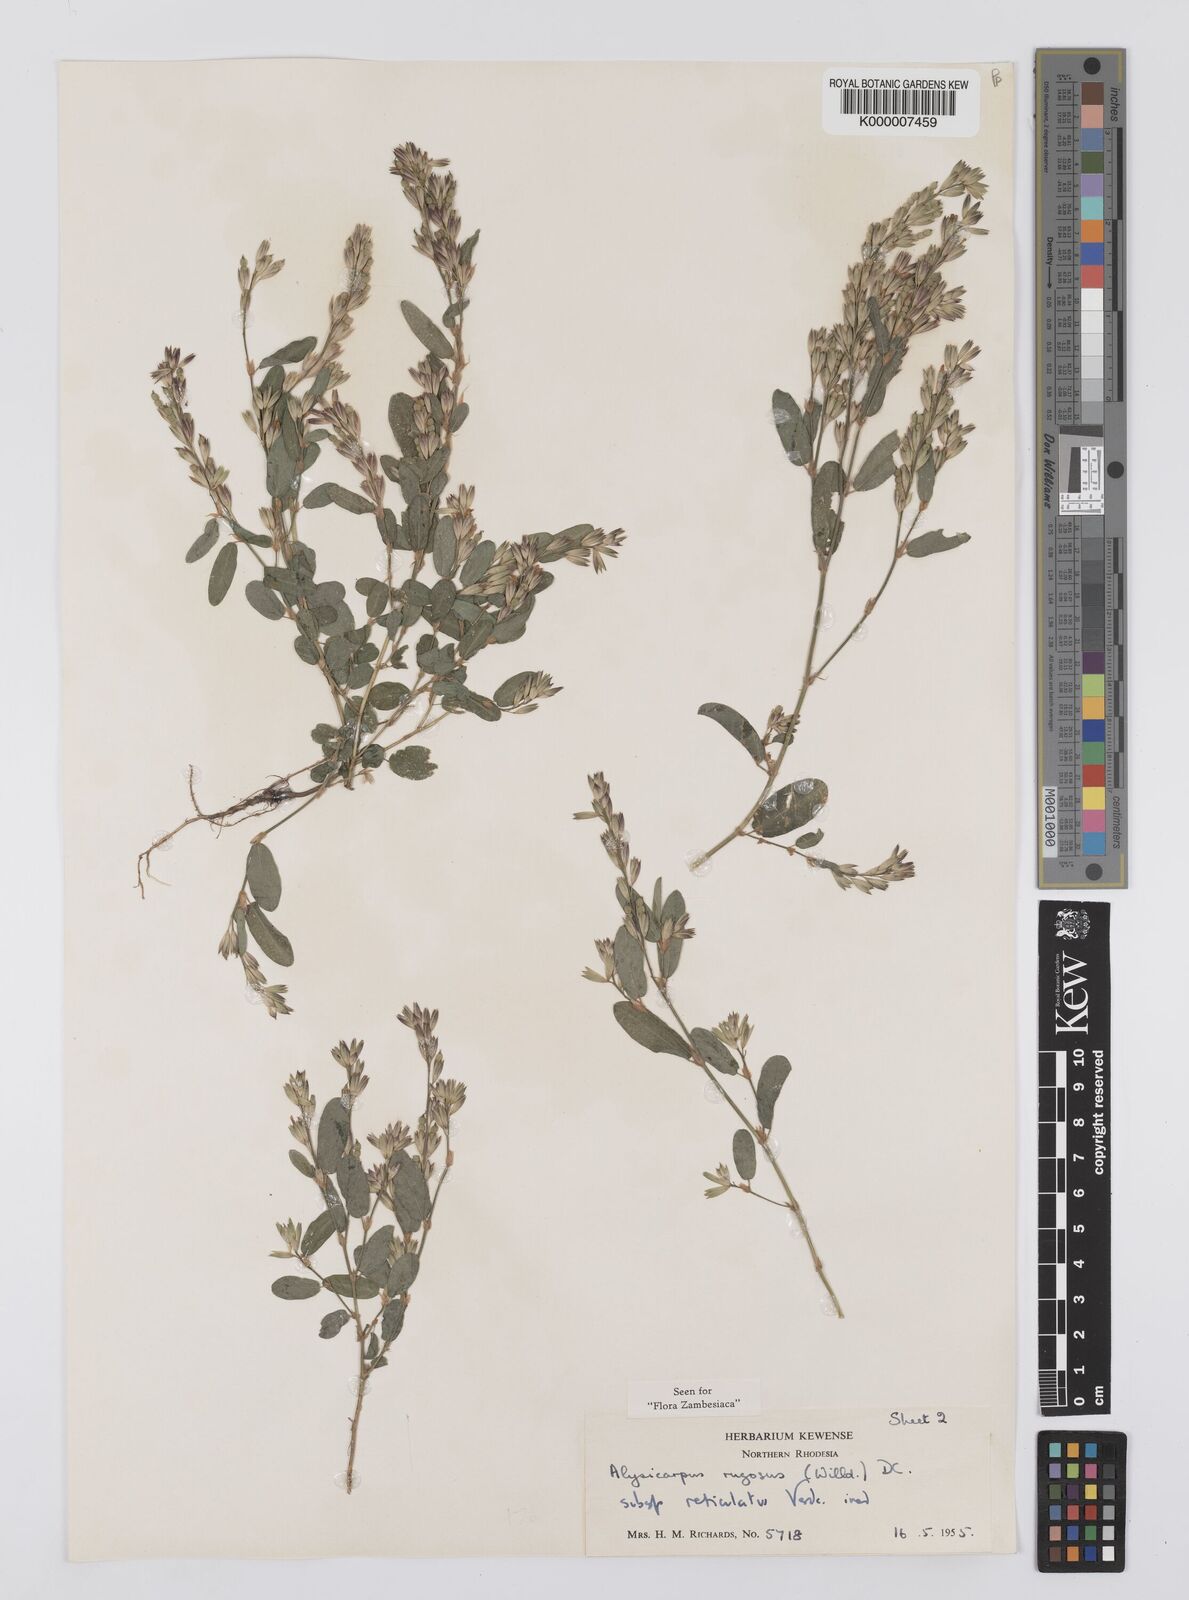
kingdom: Plantae
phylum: Tracheophyta
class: Magnoliopsida
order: Fabales
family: Fabaceae
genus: Alysicarpus
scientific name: Alysicarpus rugosus
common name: Red moneywort
